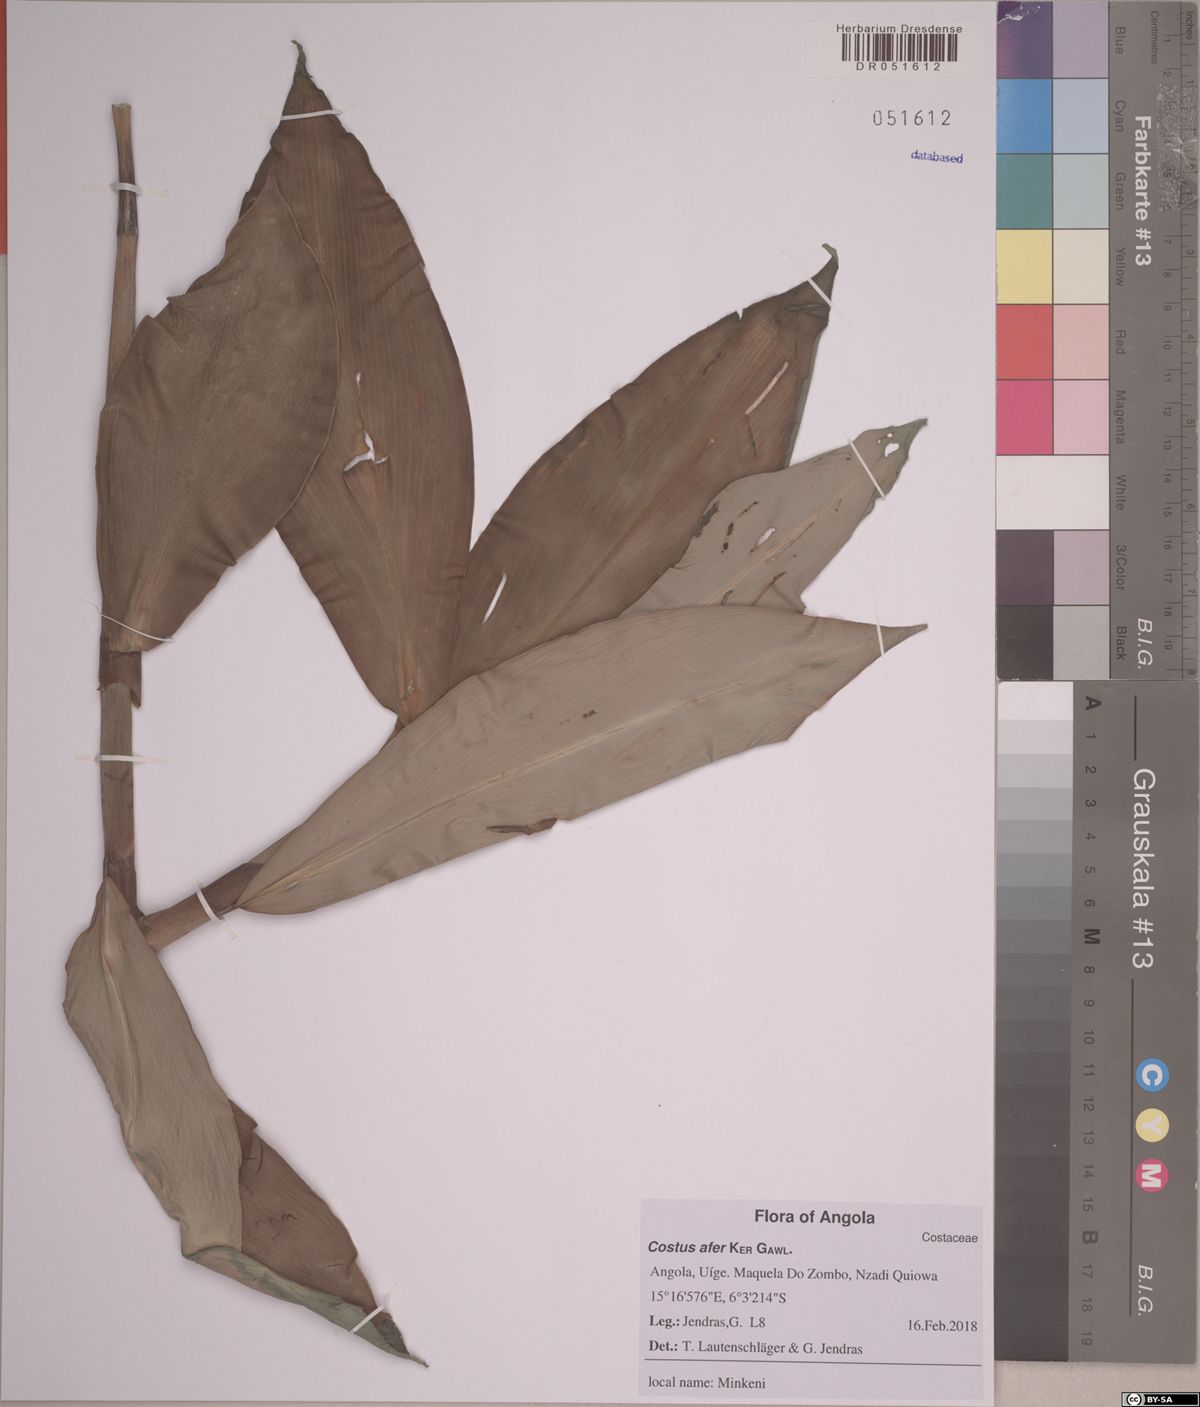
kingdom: Plantae
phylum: Tracheophyta
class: Liliopsida
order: Zingiberales
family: Costaceae
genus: Costus
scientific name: Costus afer
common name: Spiral-ginger
